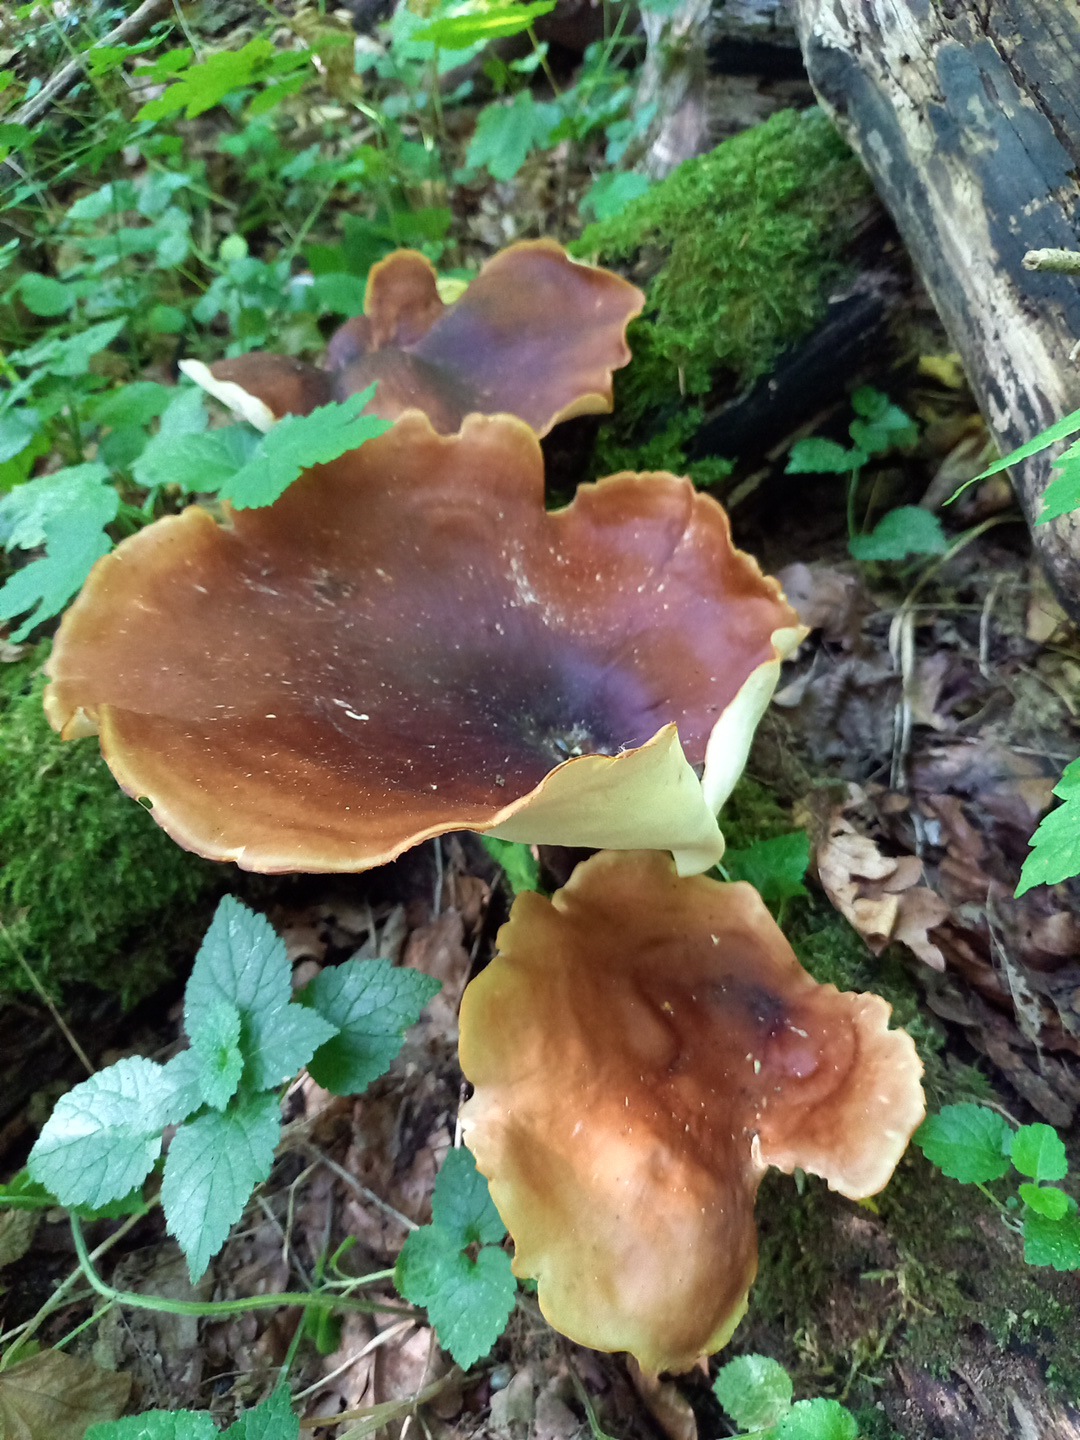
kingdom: Fungi
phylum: Basidiomycota
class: Agaricomycetes
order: Polyporales
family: Polyporaceae
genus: Picipes
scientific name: Picipes badius
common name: kastaniebrun stilkporesvamp
